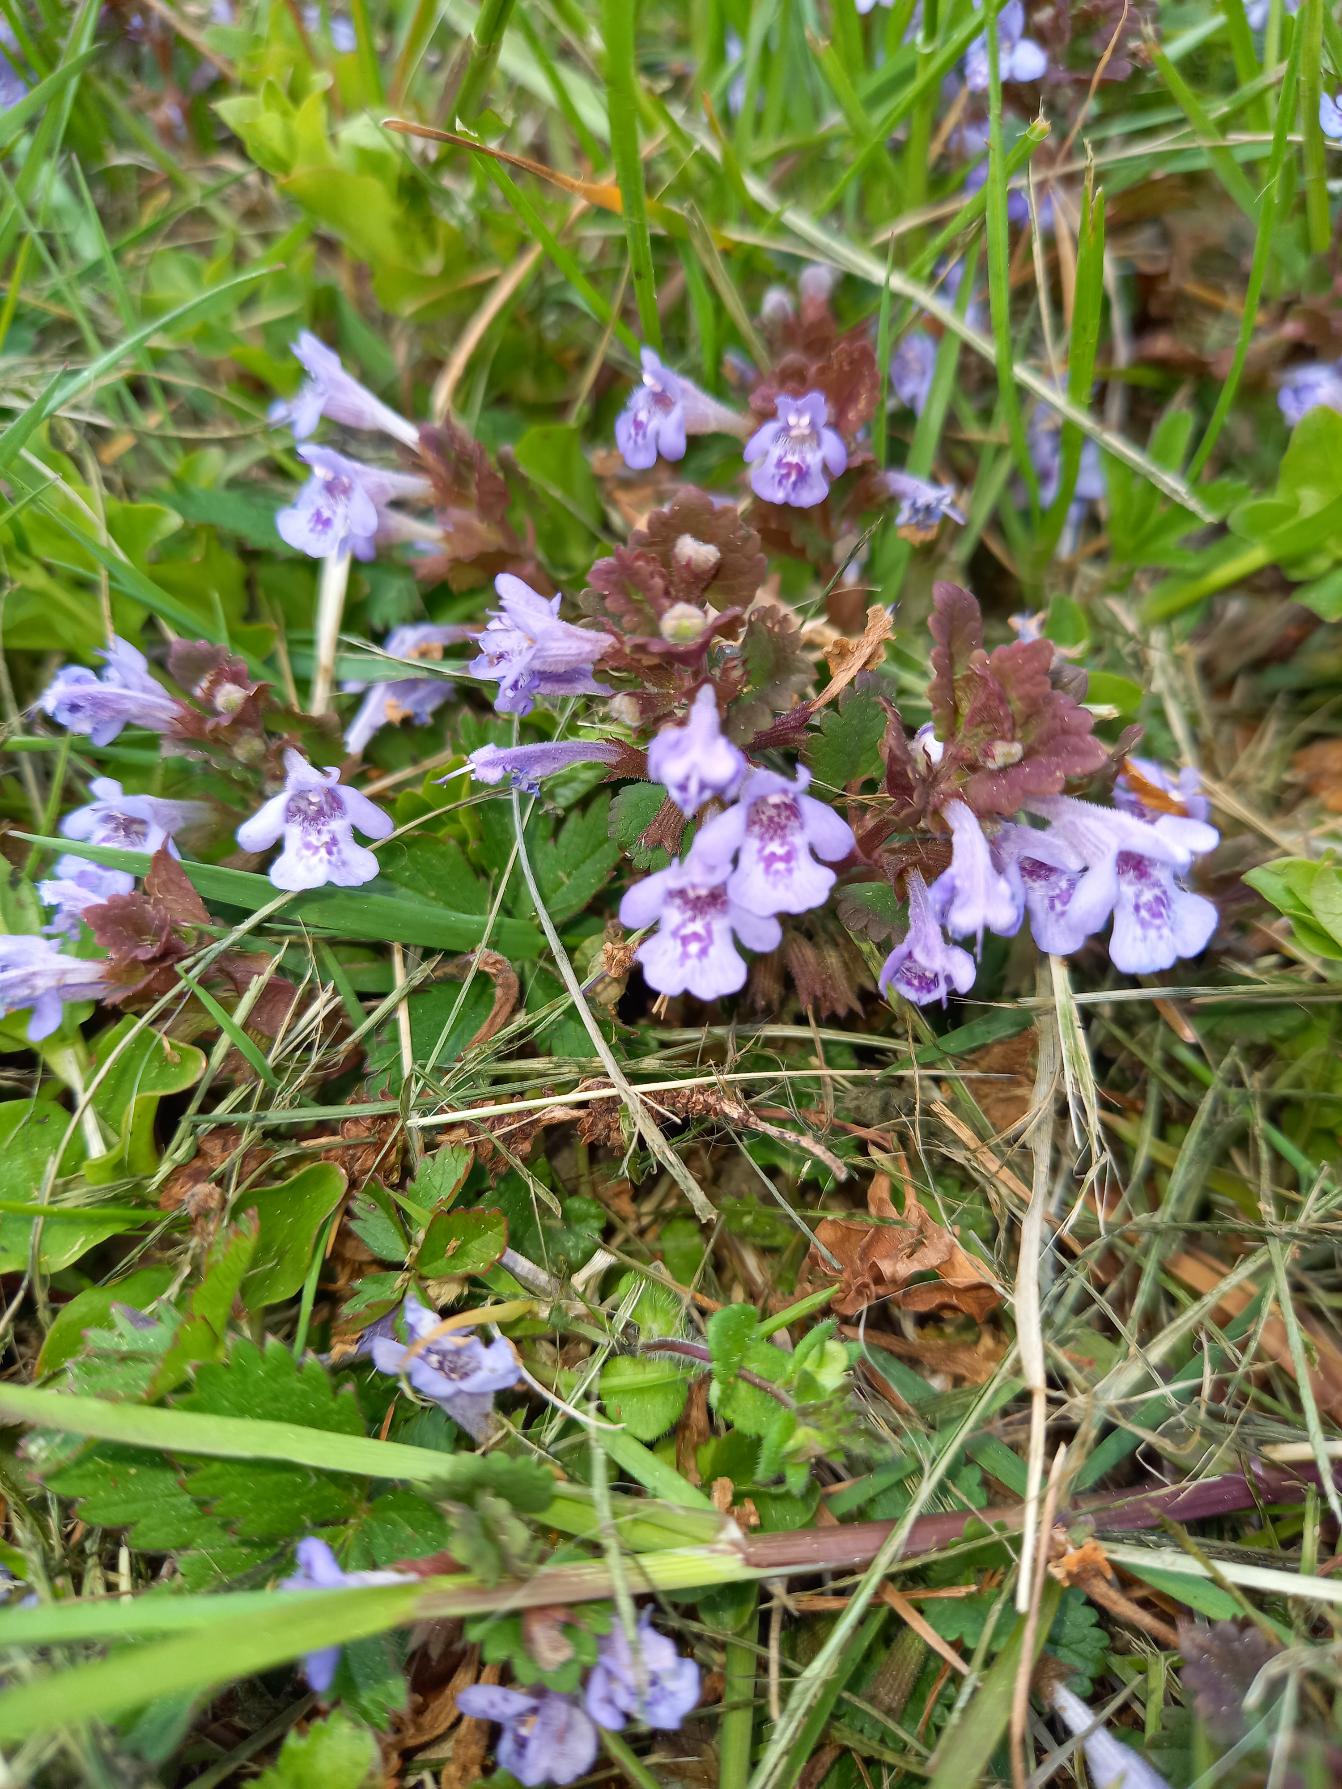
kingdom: Plantae
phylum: Tracheophyta
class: Magnoliopsida
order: Lamiales
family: Lamiaceae
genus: Glechoma
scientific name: Glechoma hederacea
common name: Korsknap
